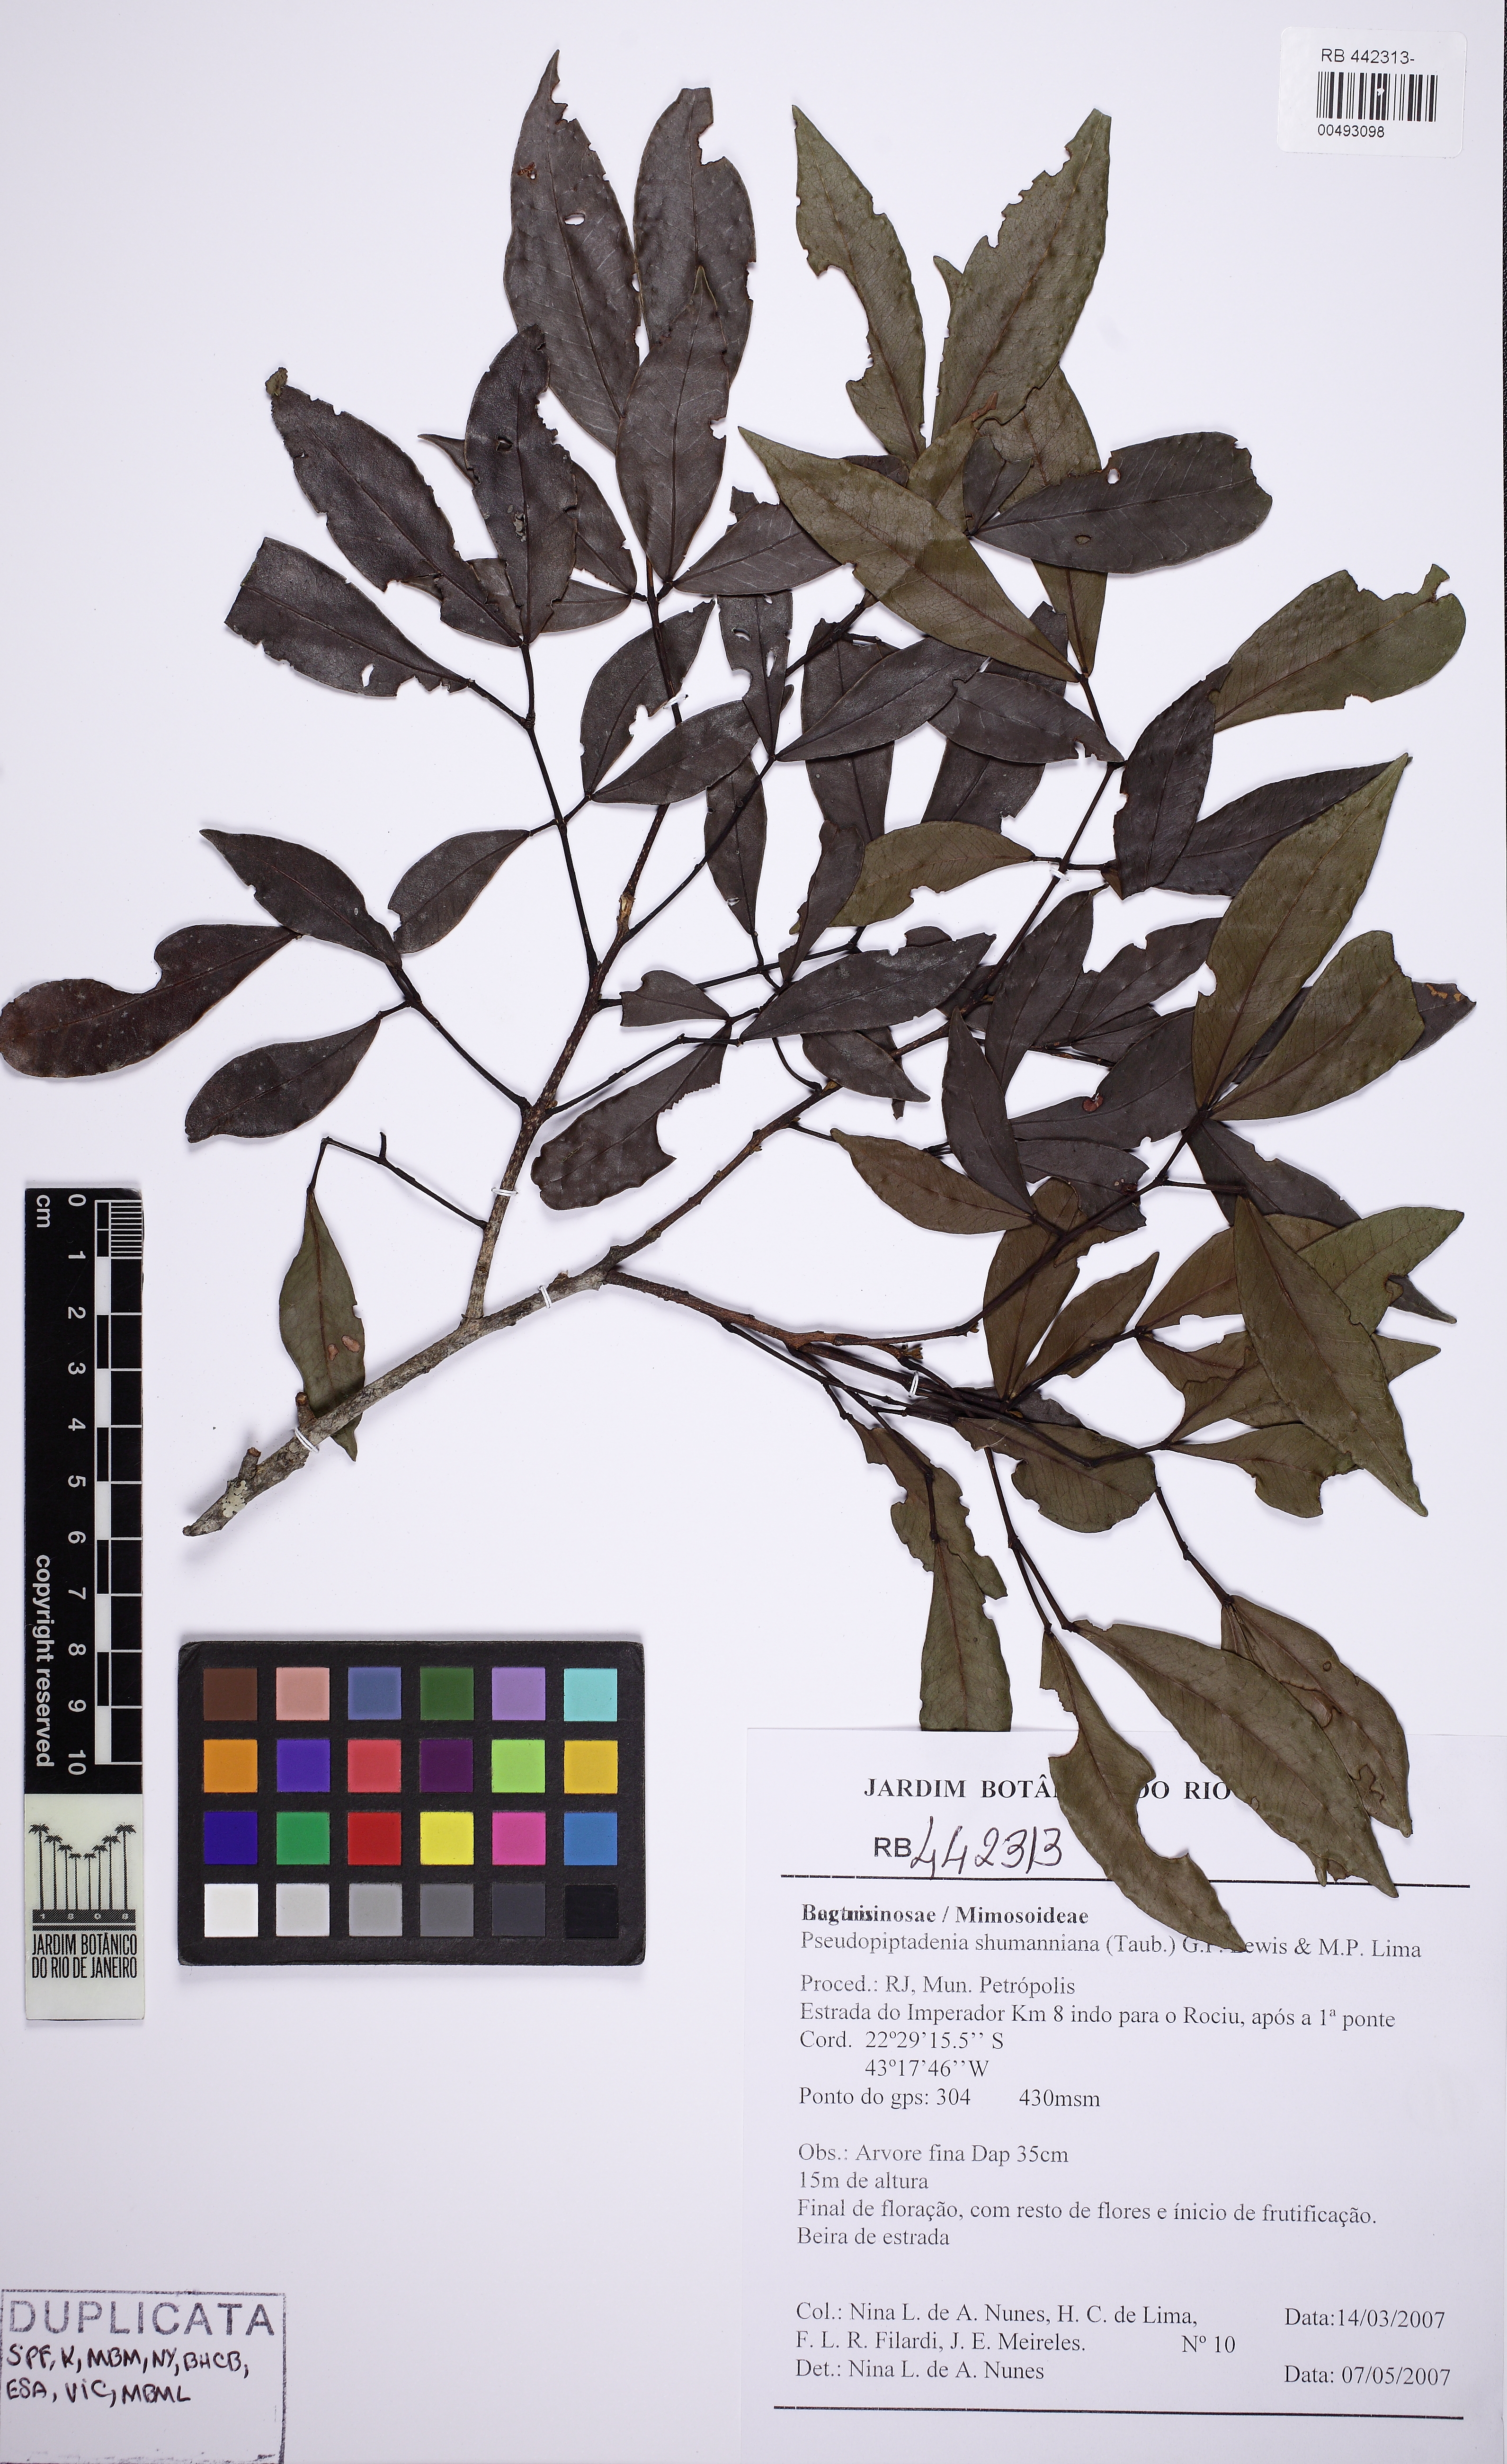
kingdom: Plantae
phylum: Tracheophyta
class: Magnoliopsida
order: Fabales
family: Fabaceae
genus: Pseudopiptadenia
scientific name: Pseudopiptadenia schumanniana
